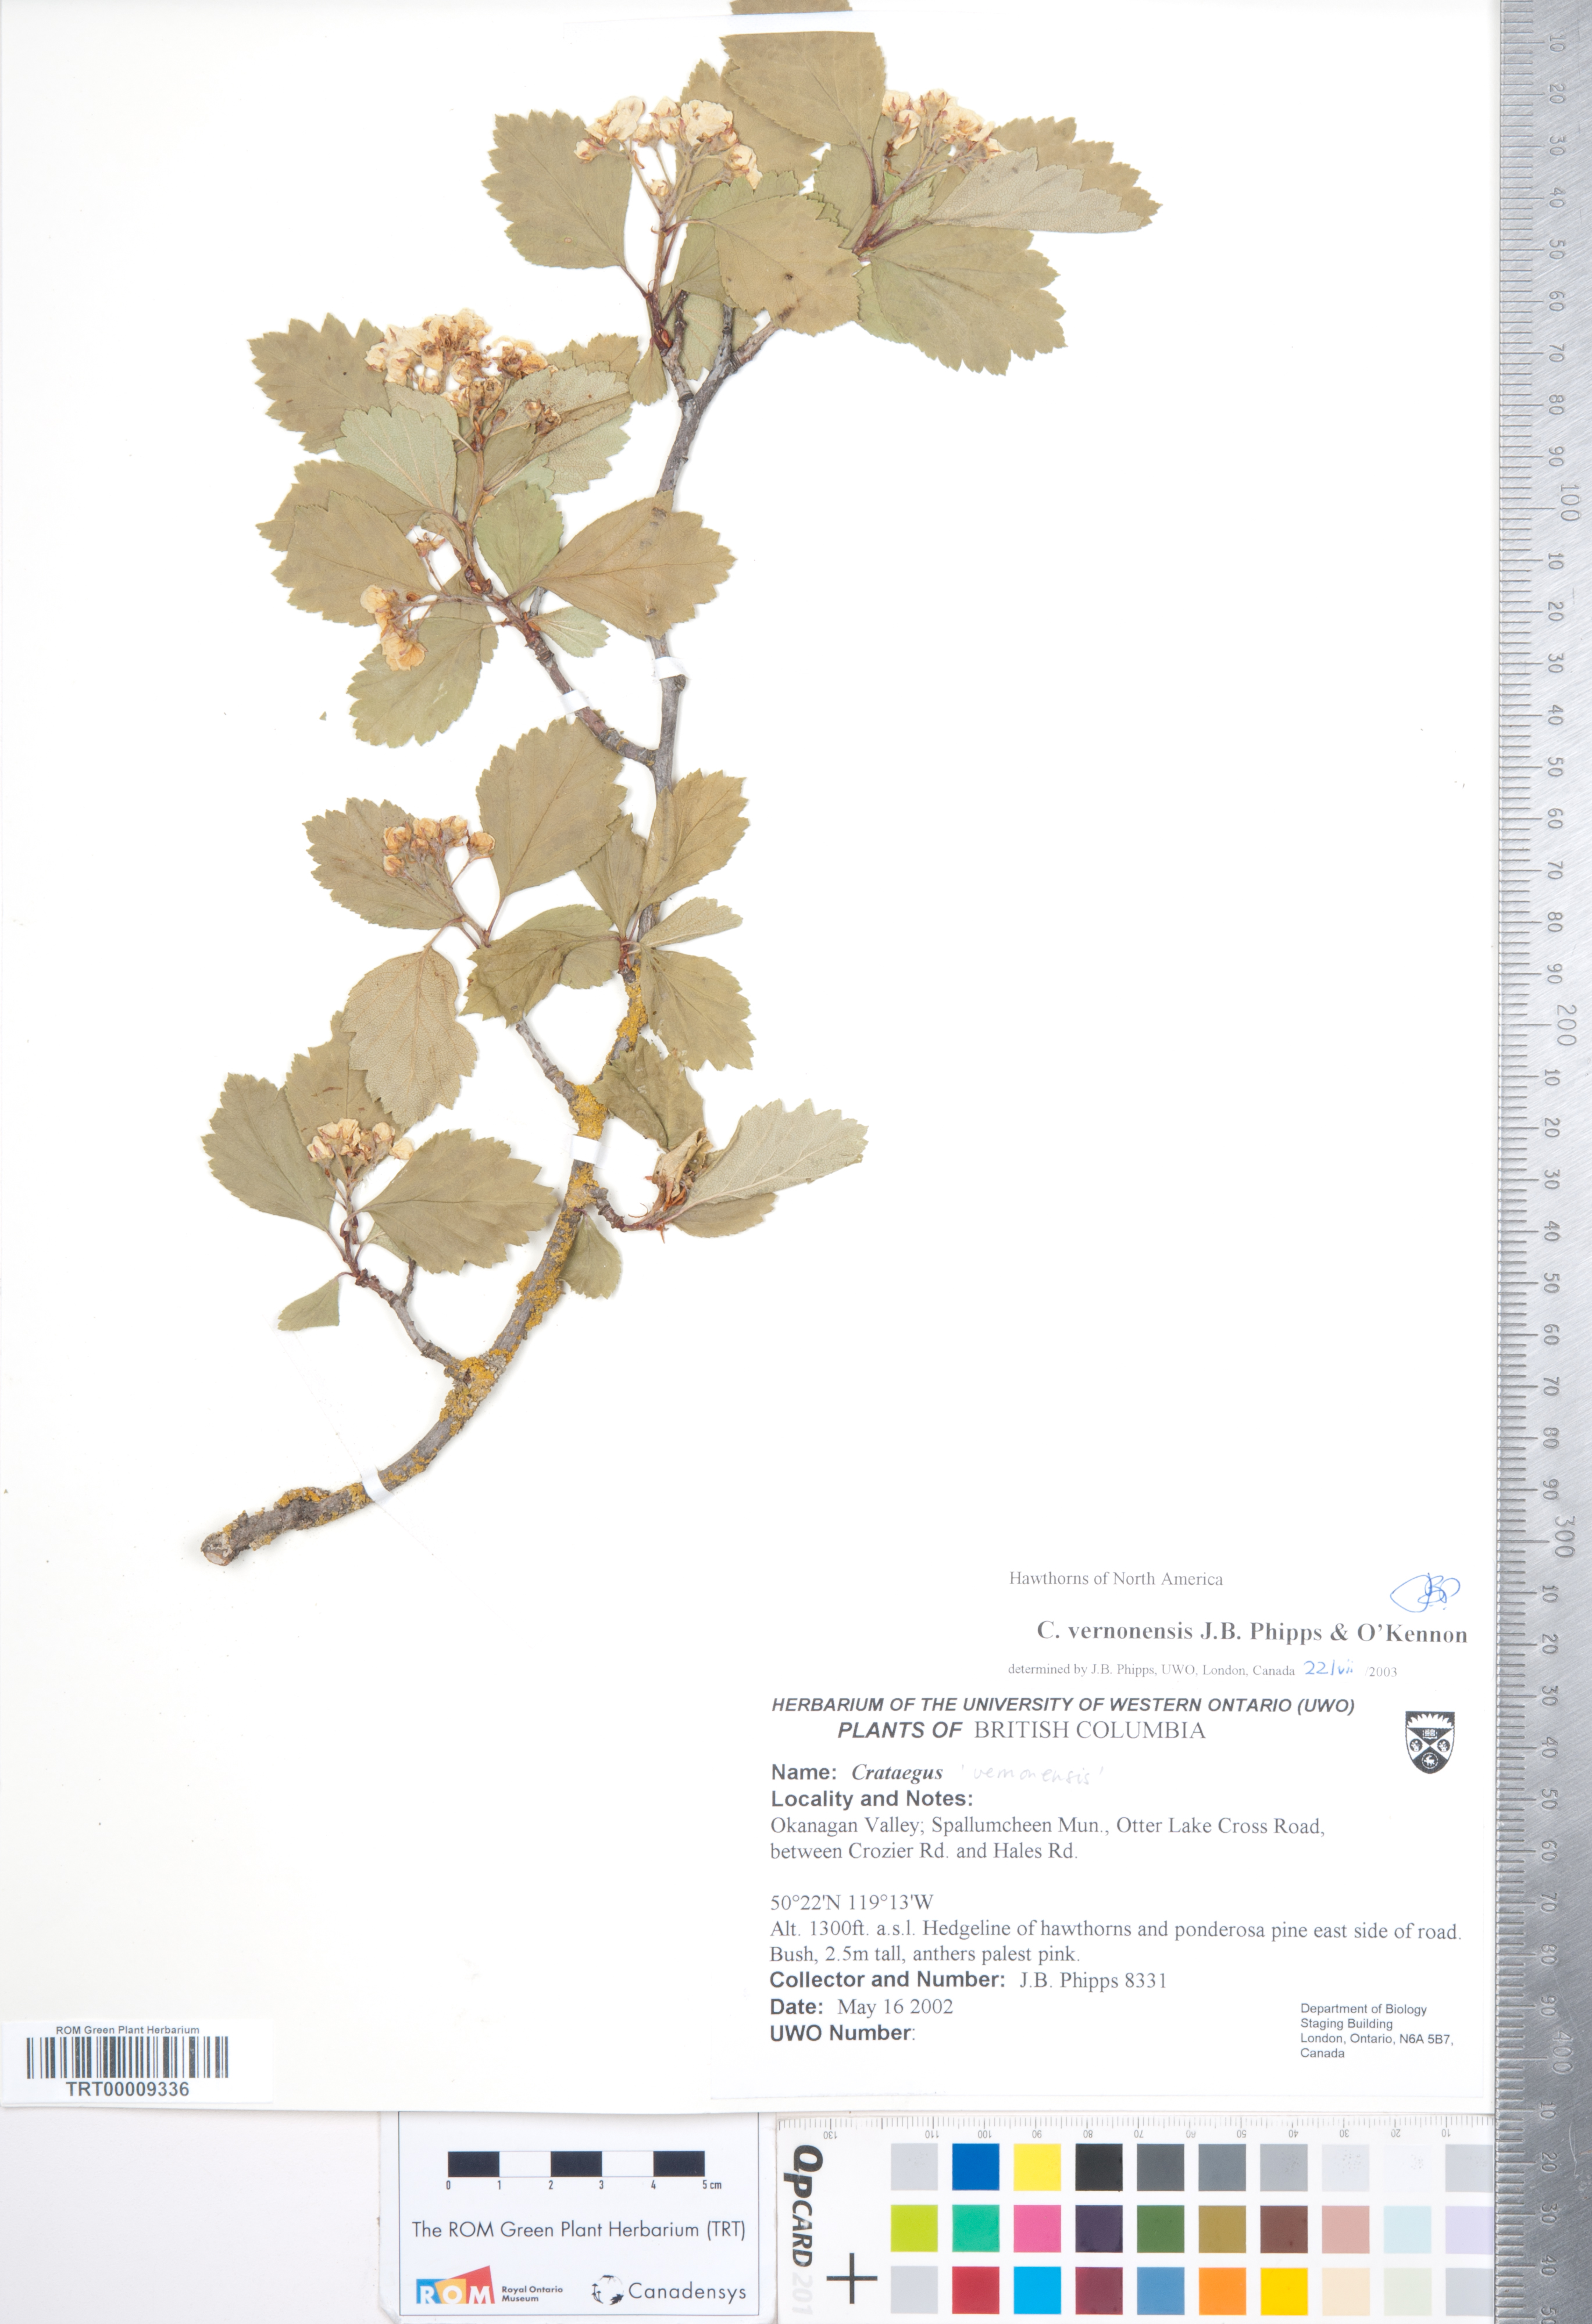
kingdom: Plantae
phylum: Tracheophyta
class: Magnoliopsida
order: Rosales
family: Rosaceae
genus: Crataegus
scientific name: Crataegus
